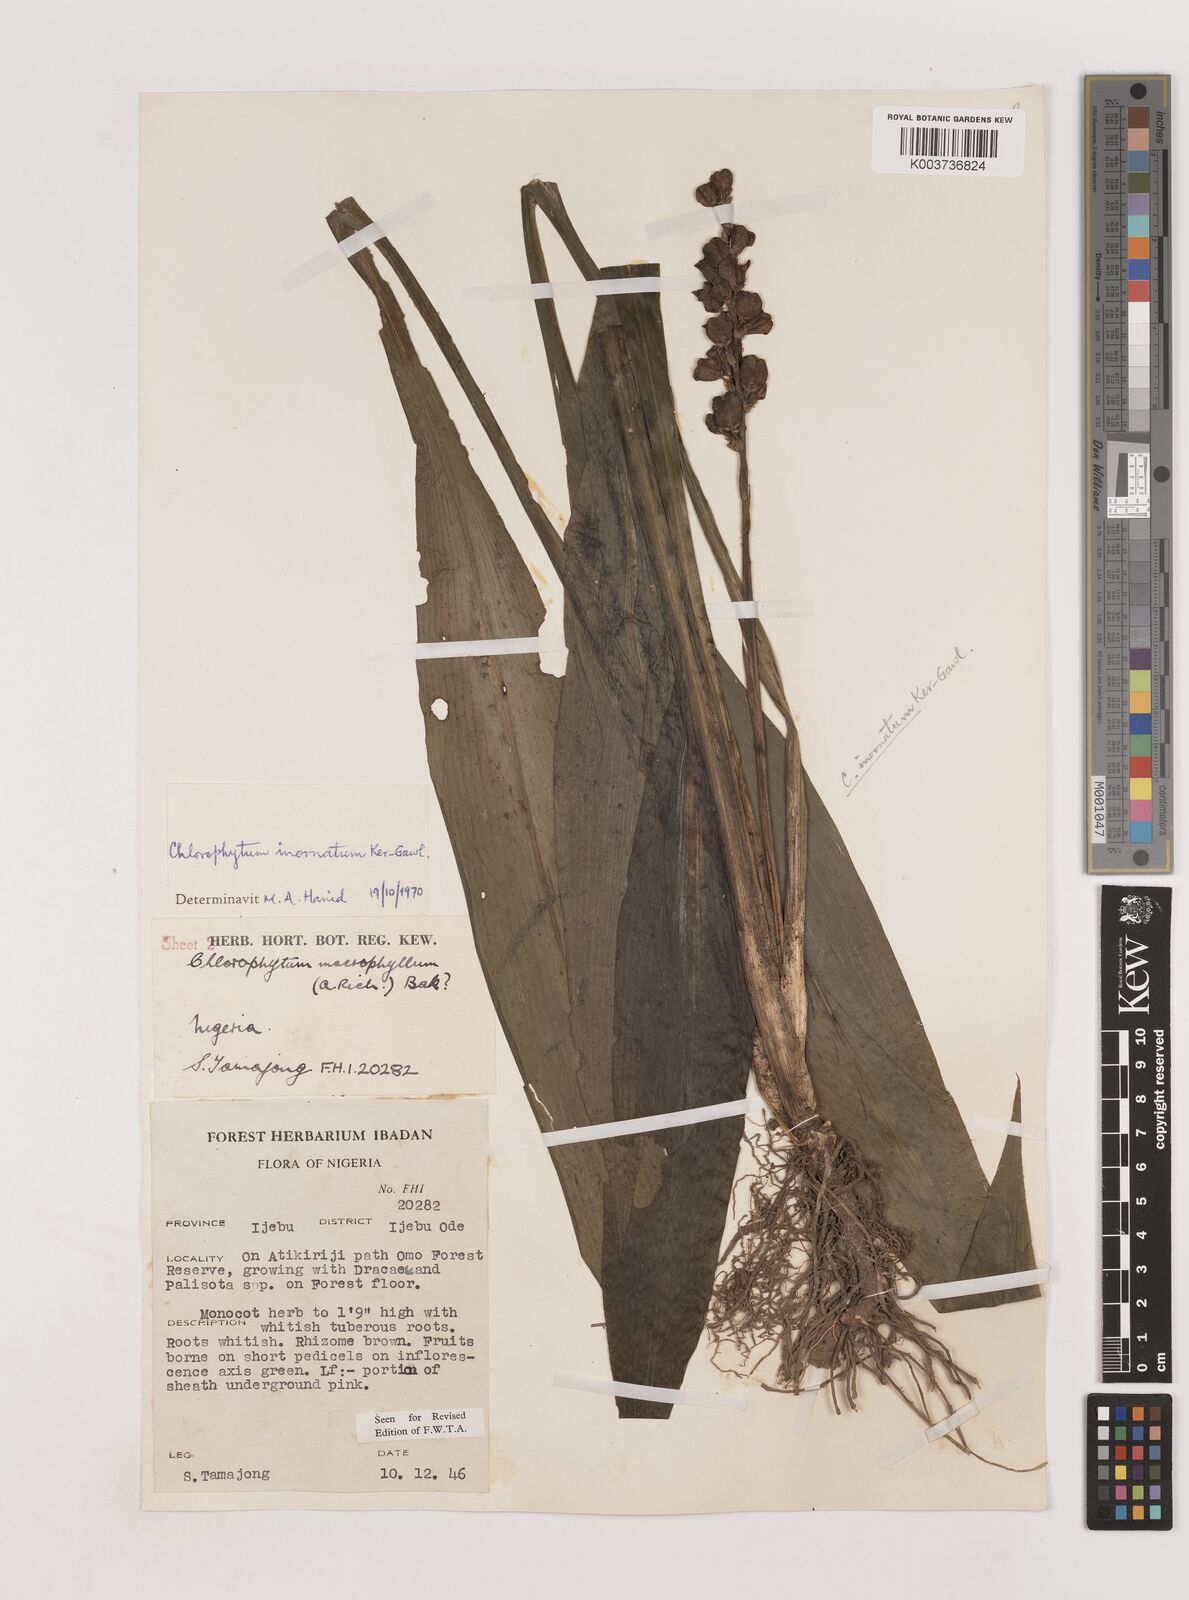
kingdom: Plantae
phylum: Tracheophyta
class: Liliopsida
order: Asparagales
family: Asparagaceae
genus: Chlorophytum
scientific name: Chlorophytum inornatum
